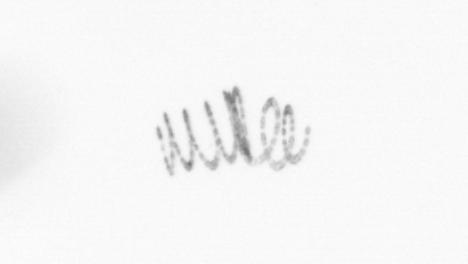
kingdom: Chromista
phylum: Ochrophyta
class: Bacillariophyceae
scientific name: Bacillariophyceae
